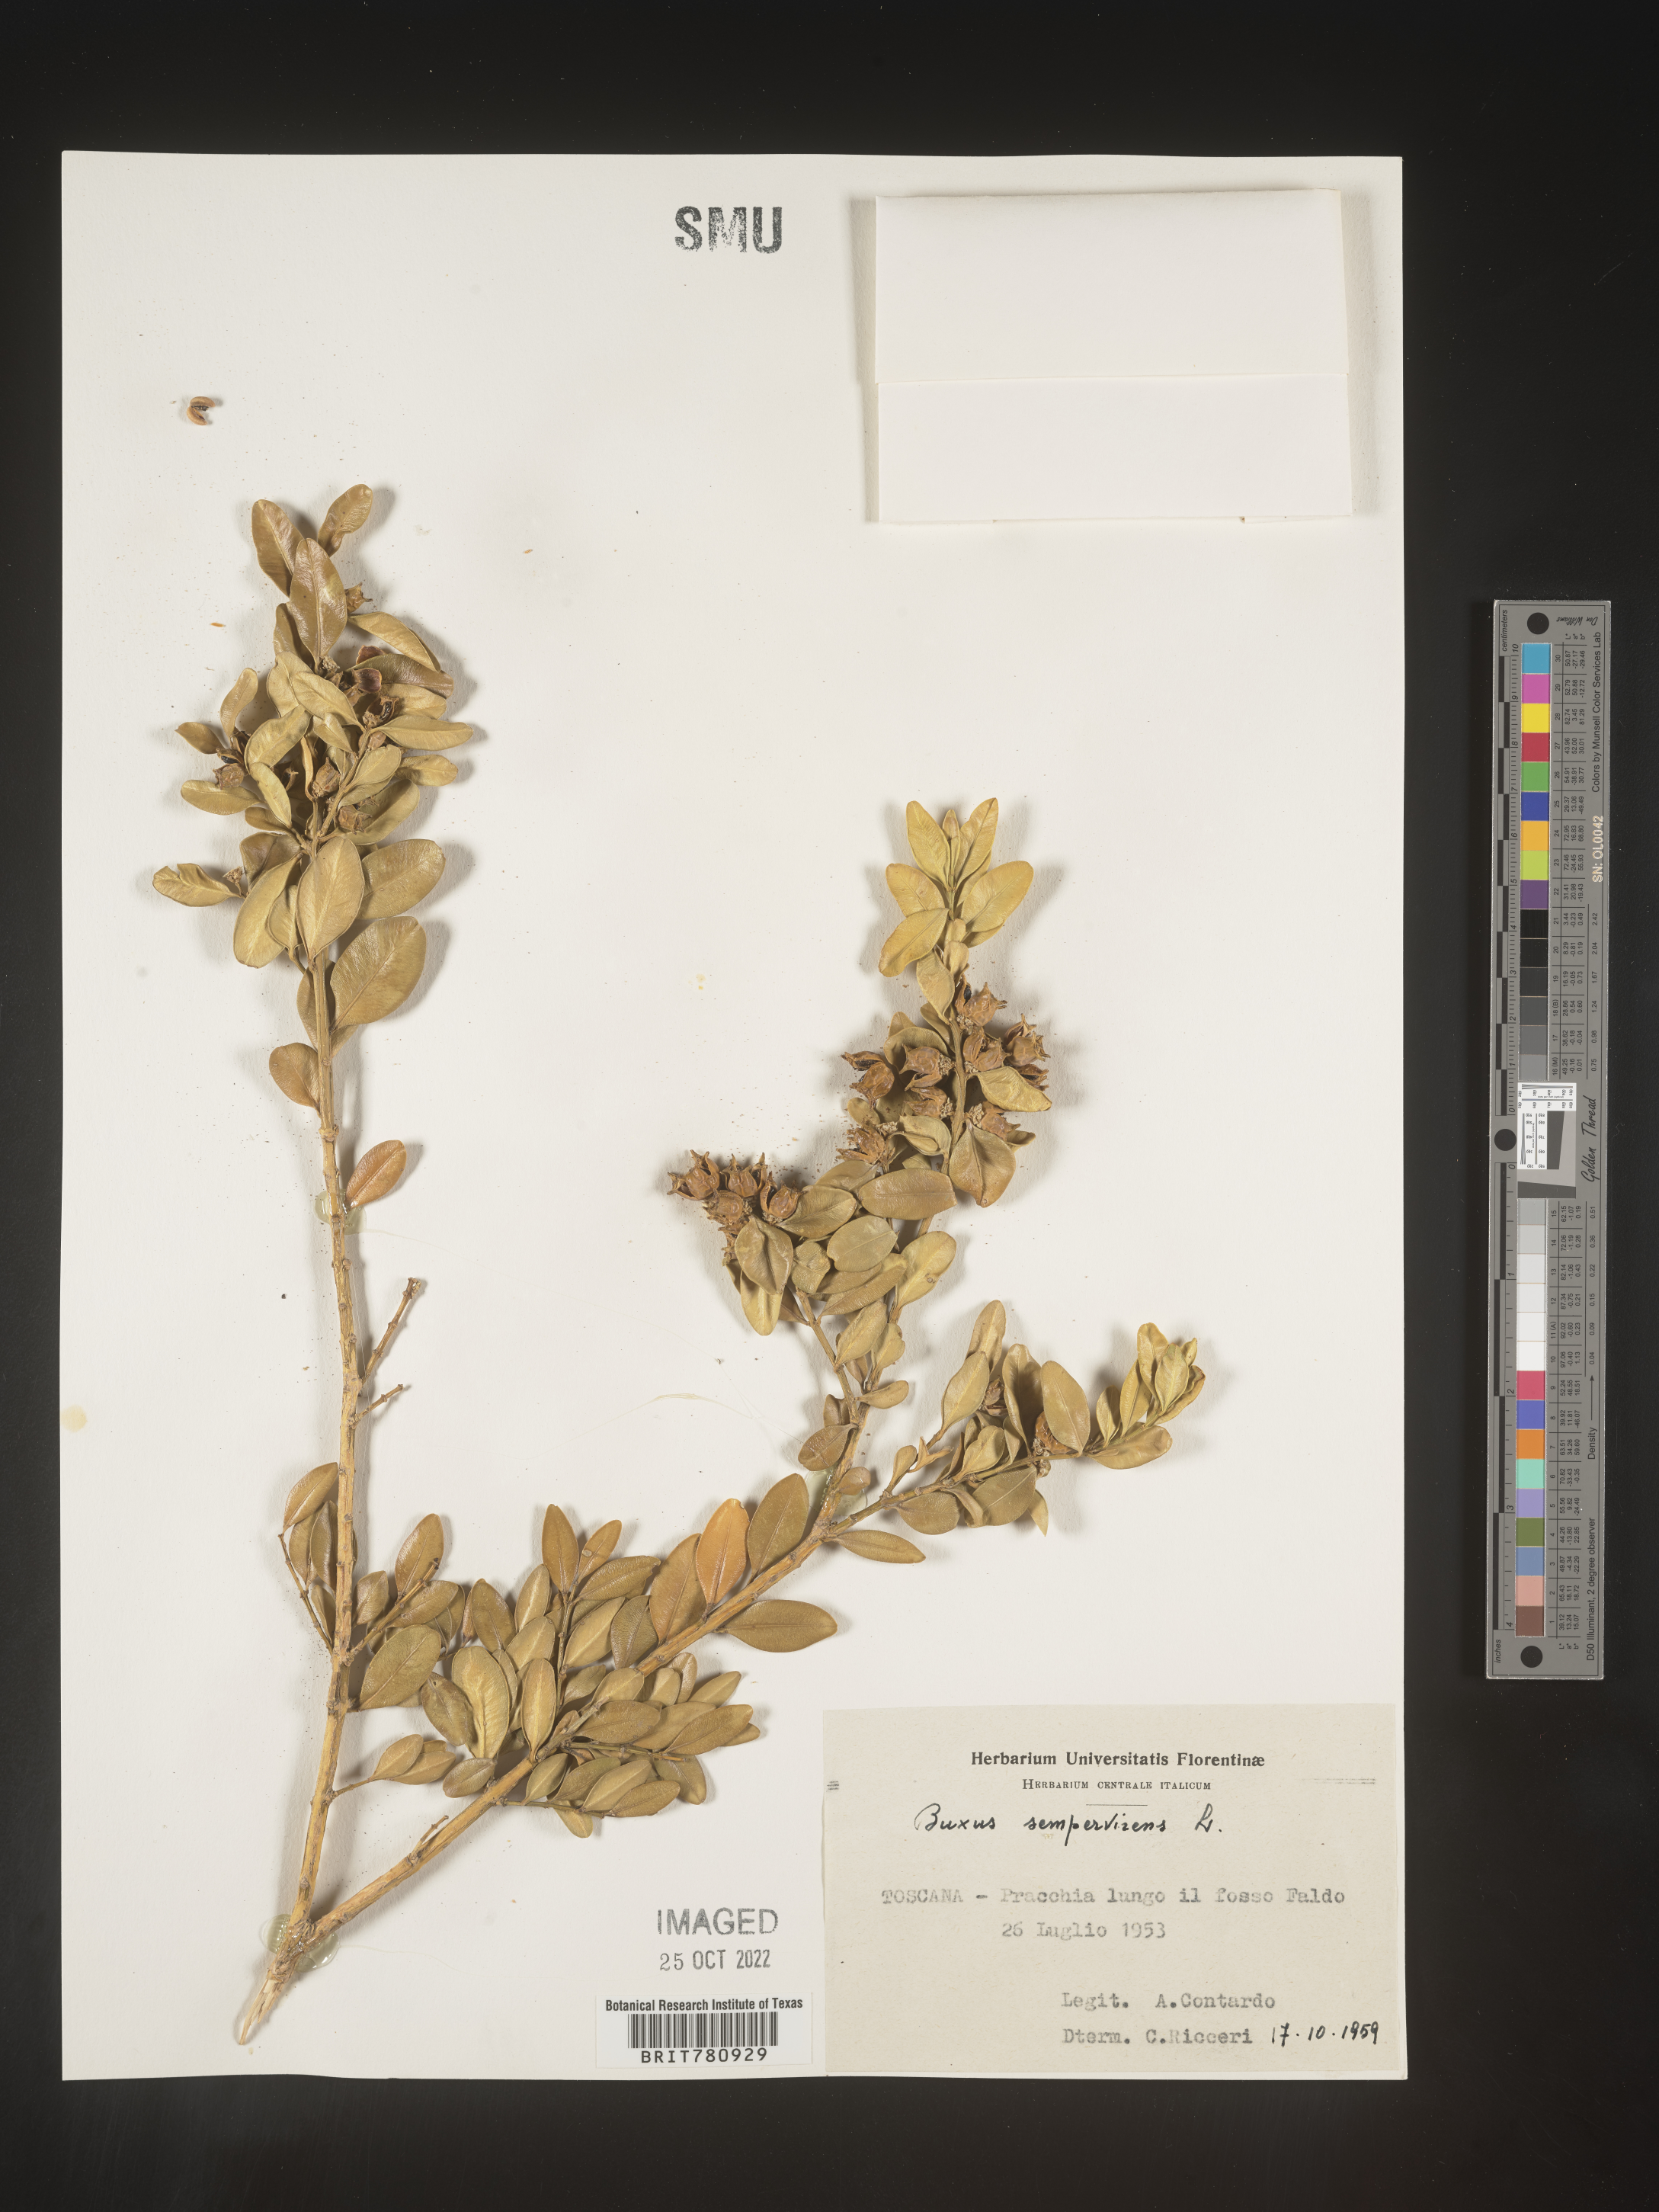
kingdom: Plantae
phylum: Tracheophyta
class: Magnoliopsida
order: Buxales
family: Buxaceae
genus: Buxus
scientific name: Buxus
